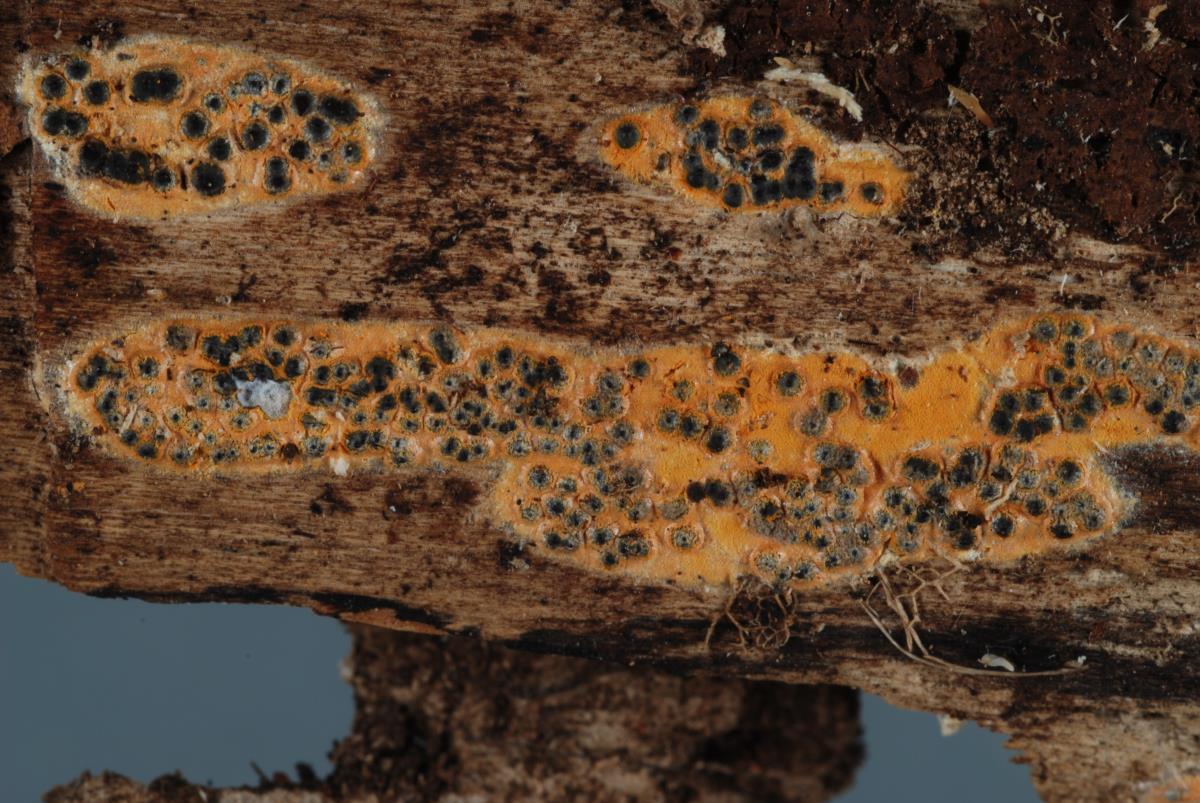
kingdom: Fungi
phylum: Ascomycota
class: Sordariomycetes
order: Xylariales
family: Xylariaceae
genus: Rosellinia
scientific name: Rosellinia
